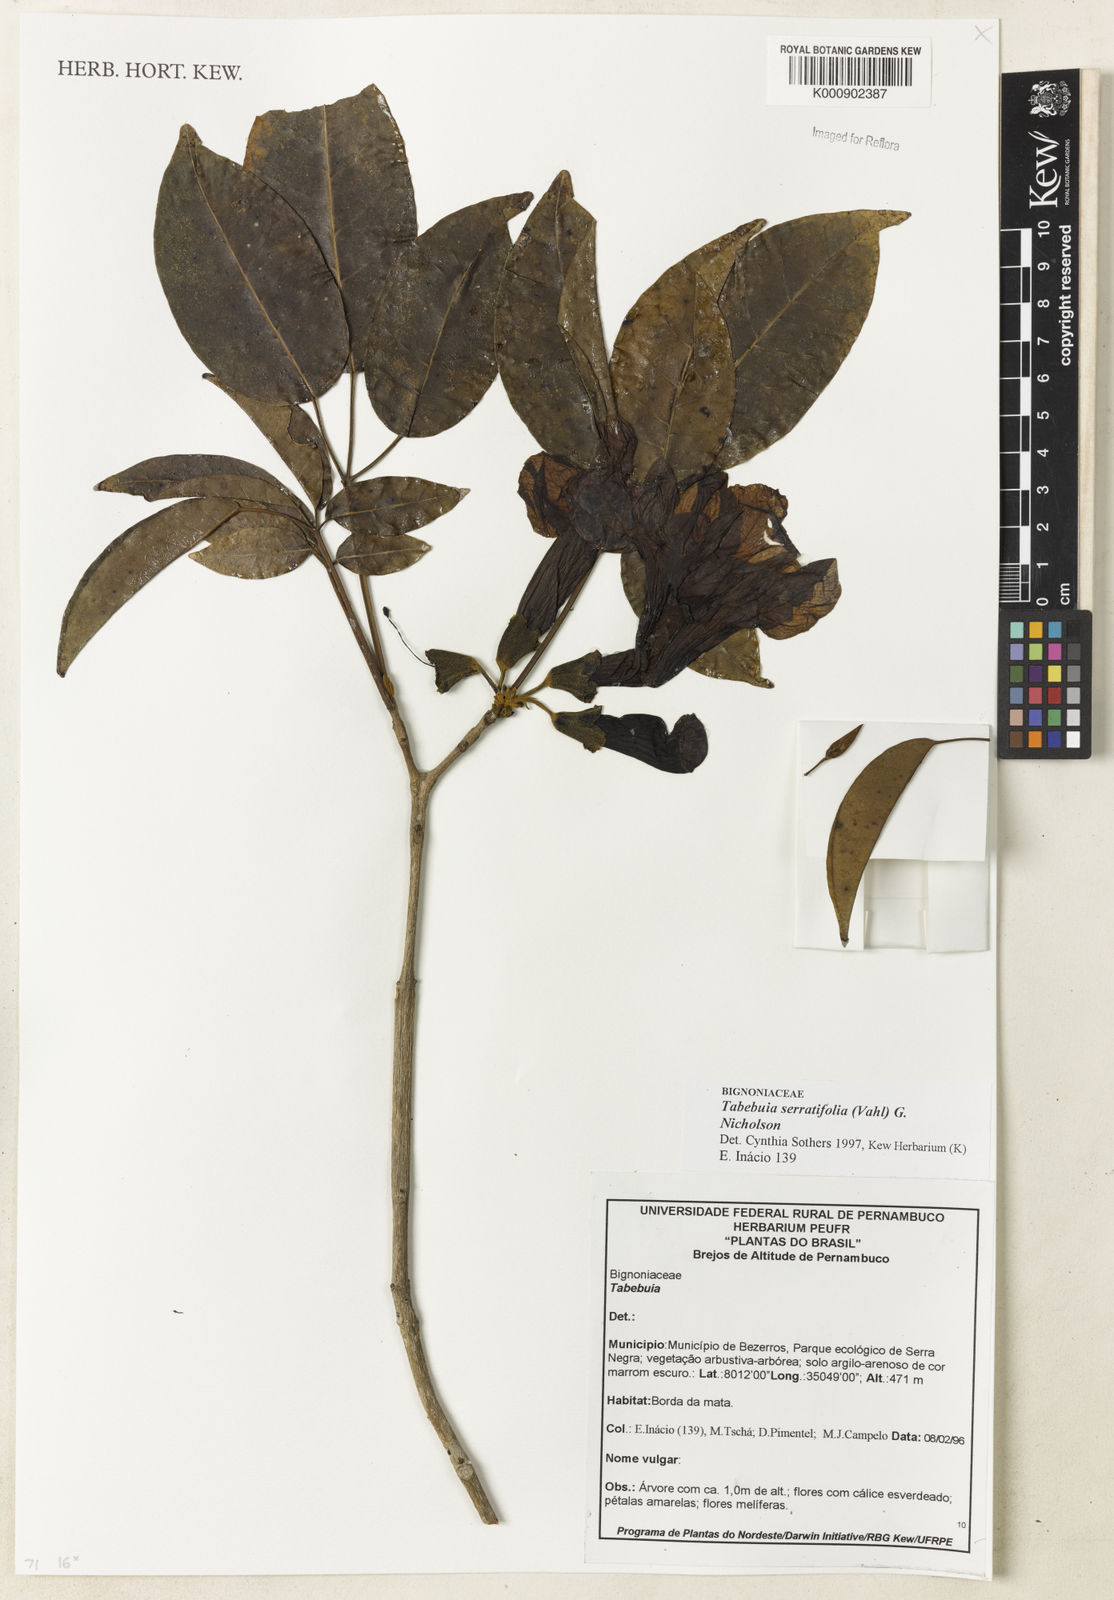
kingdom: Plantae
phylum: Tracheophyta
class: Magnoliopsida
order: Lamiales
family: Bignoniaceae
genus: Handroanthus
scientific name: Handroanthus serratifolius
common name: Yellow ipe
